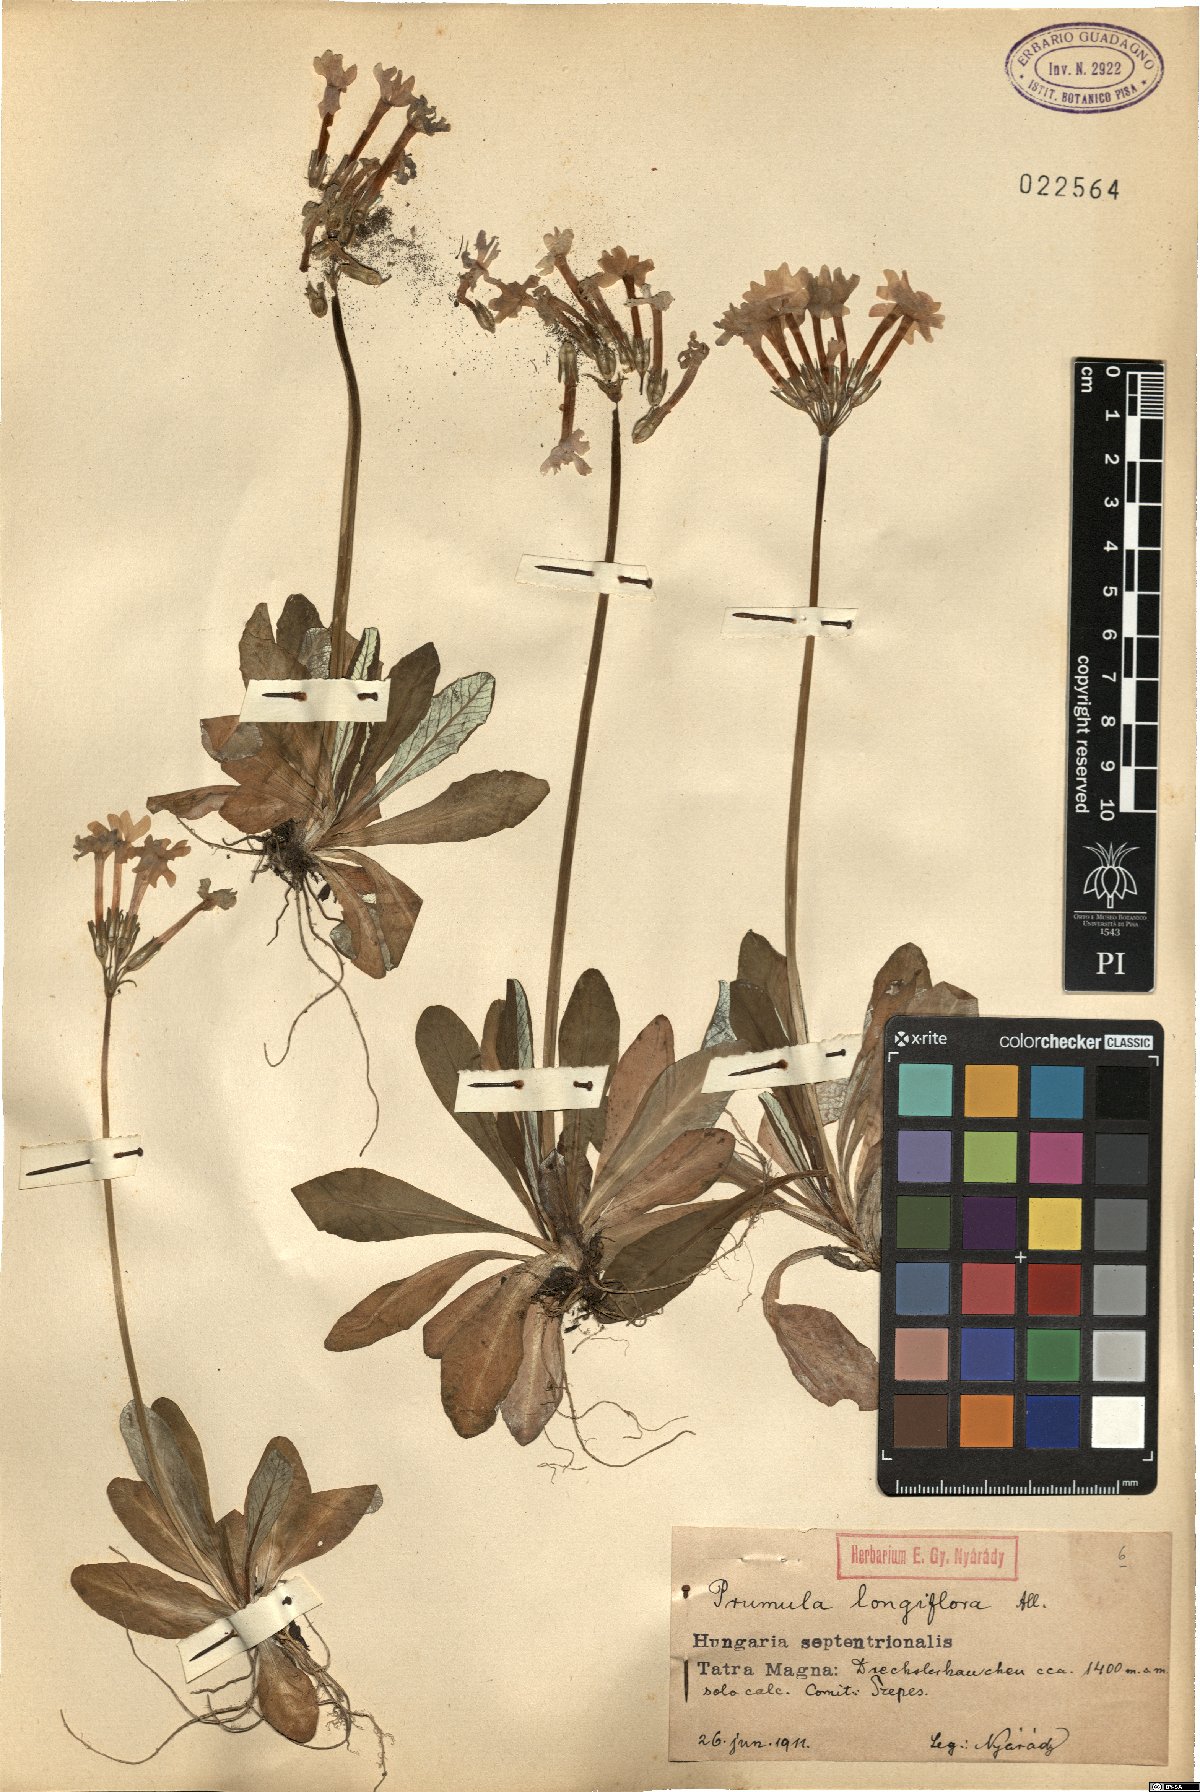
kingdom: Plantae
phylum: Tracheophyta
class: Magnoliopsida
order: Ericales
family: Primulaceae
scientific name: Primulaceae
